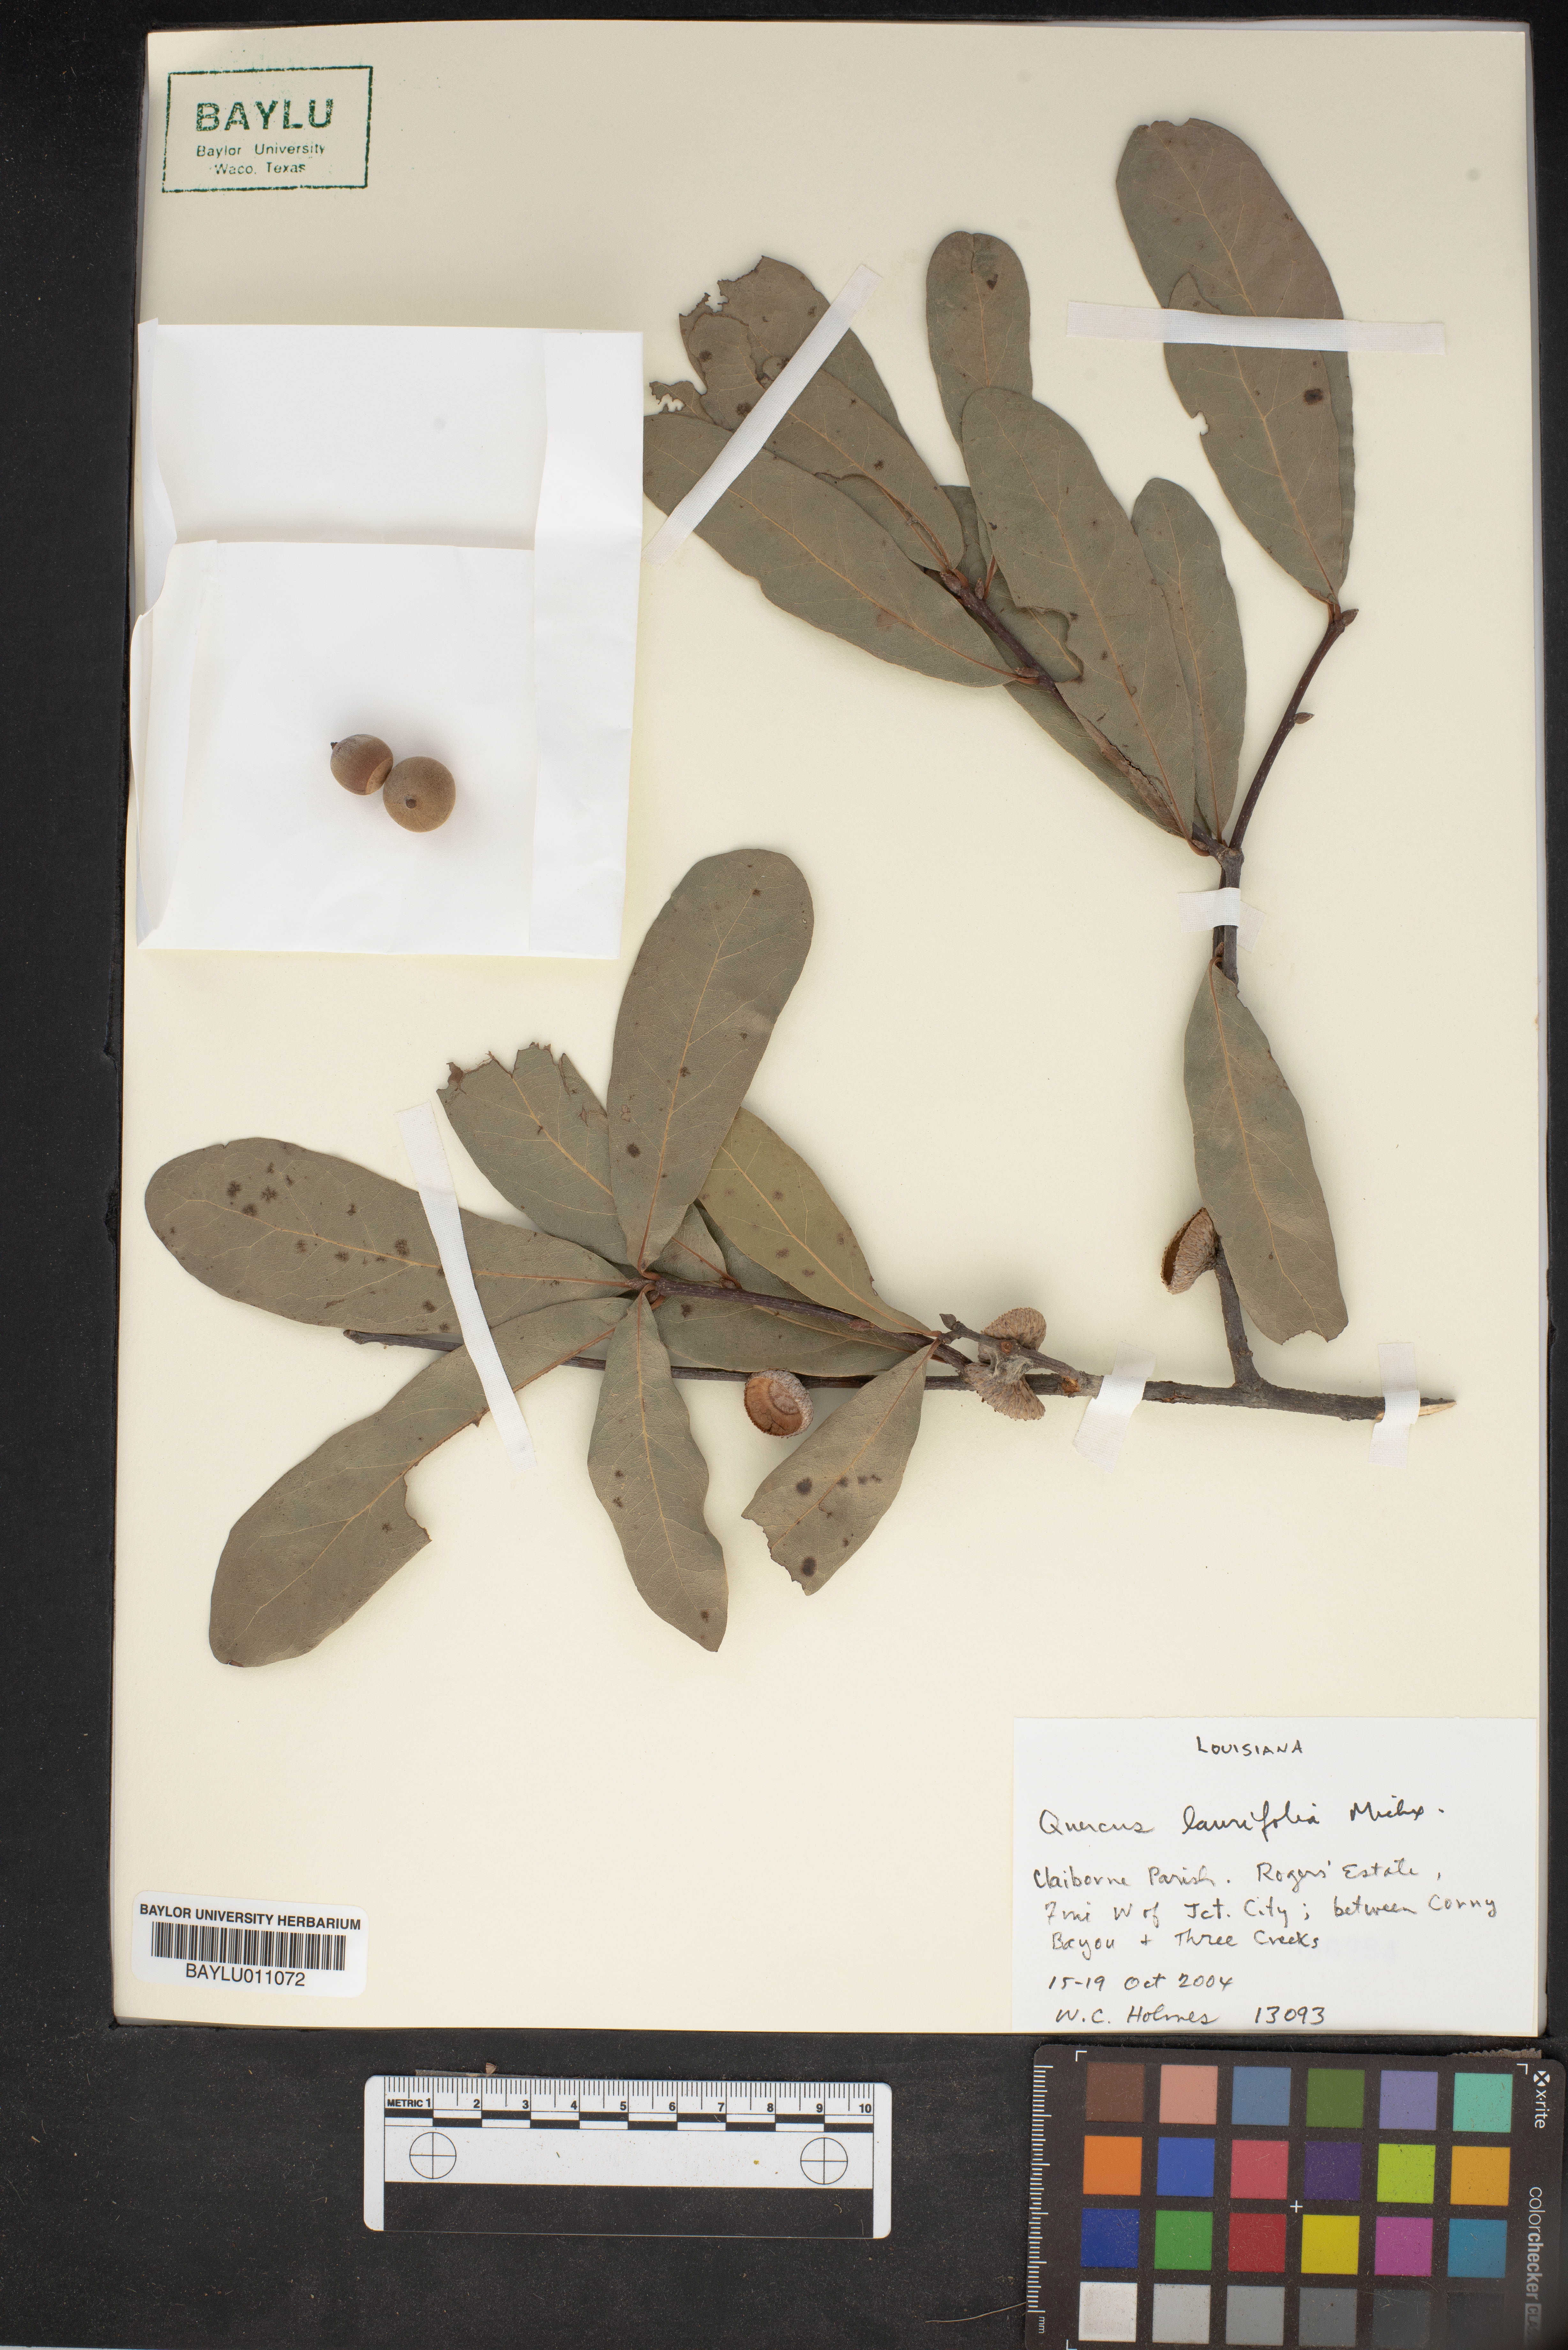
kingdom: Plantae
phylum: Tracheophyta
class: Magnoliopsida
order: Fagales
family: Fagaceae
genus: Quercus
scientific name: Quercus laurifolia
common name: Swamp laurel oak
